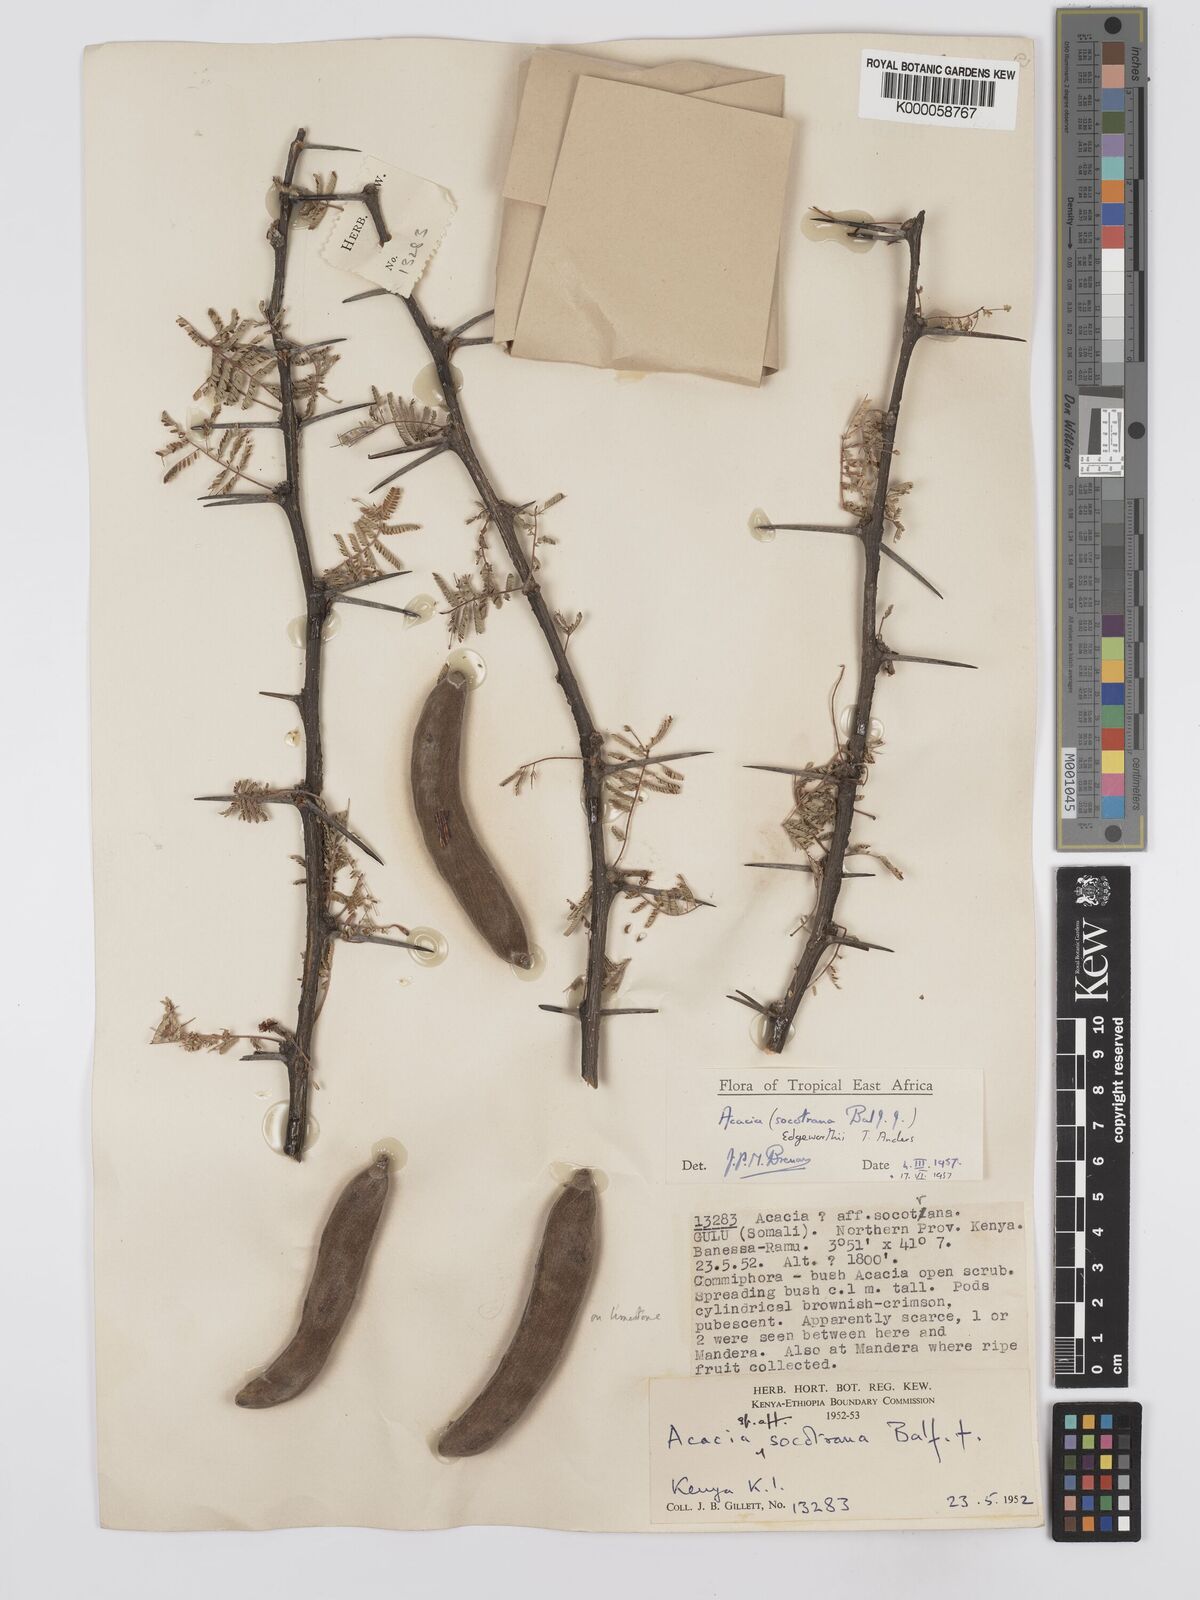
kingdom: Plantae
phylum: Tracheophyta
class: Magnoliopsida
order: Fabales
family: Fabaceae
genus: Vachellia
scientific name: Vachellia edgeworthii
